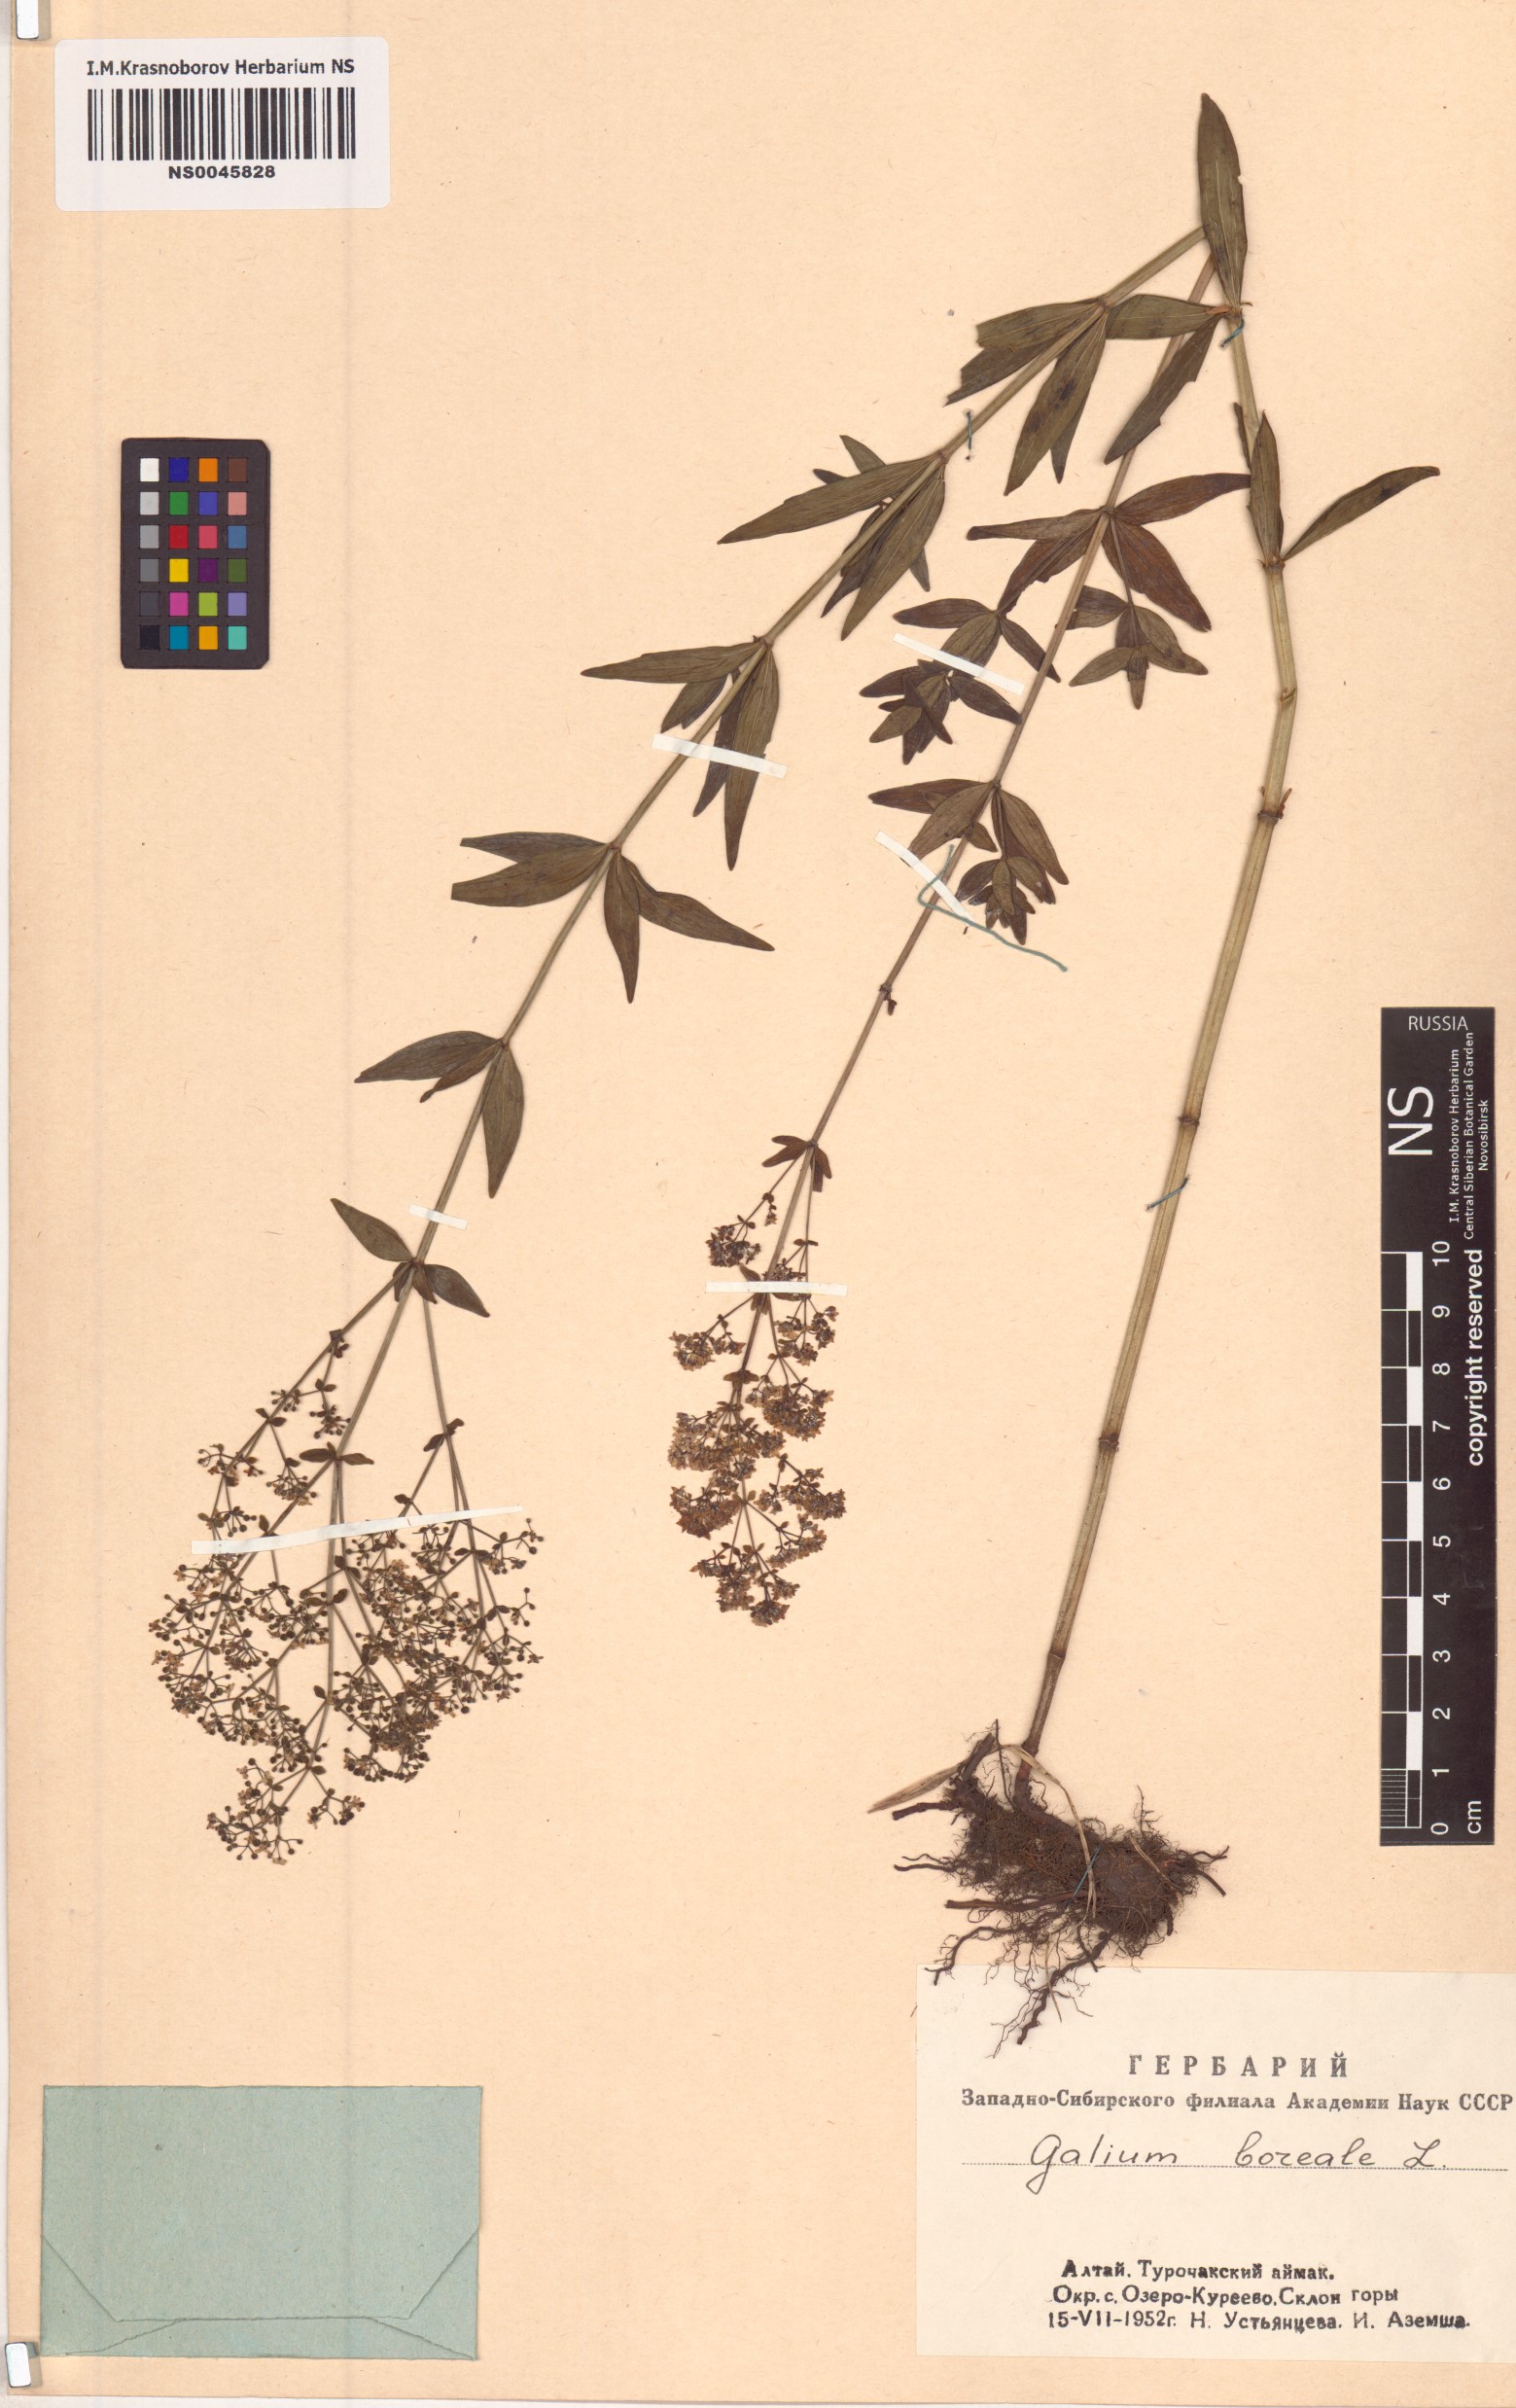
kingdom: Plantae
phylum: Tracheophyta
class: Magnoliopsida
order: Gentianales
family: Rubiaceae
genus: Galium
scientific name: Galium boreale
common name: Northern bedstraw
